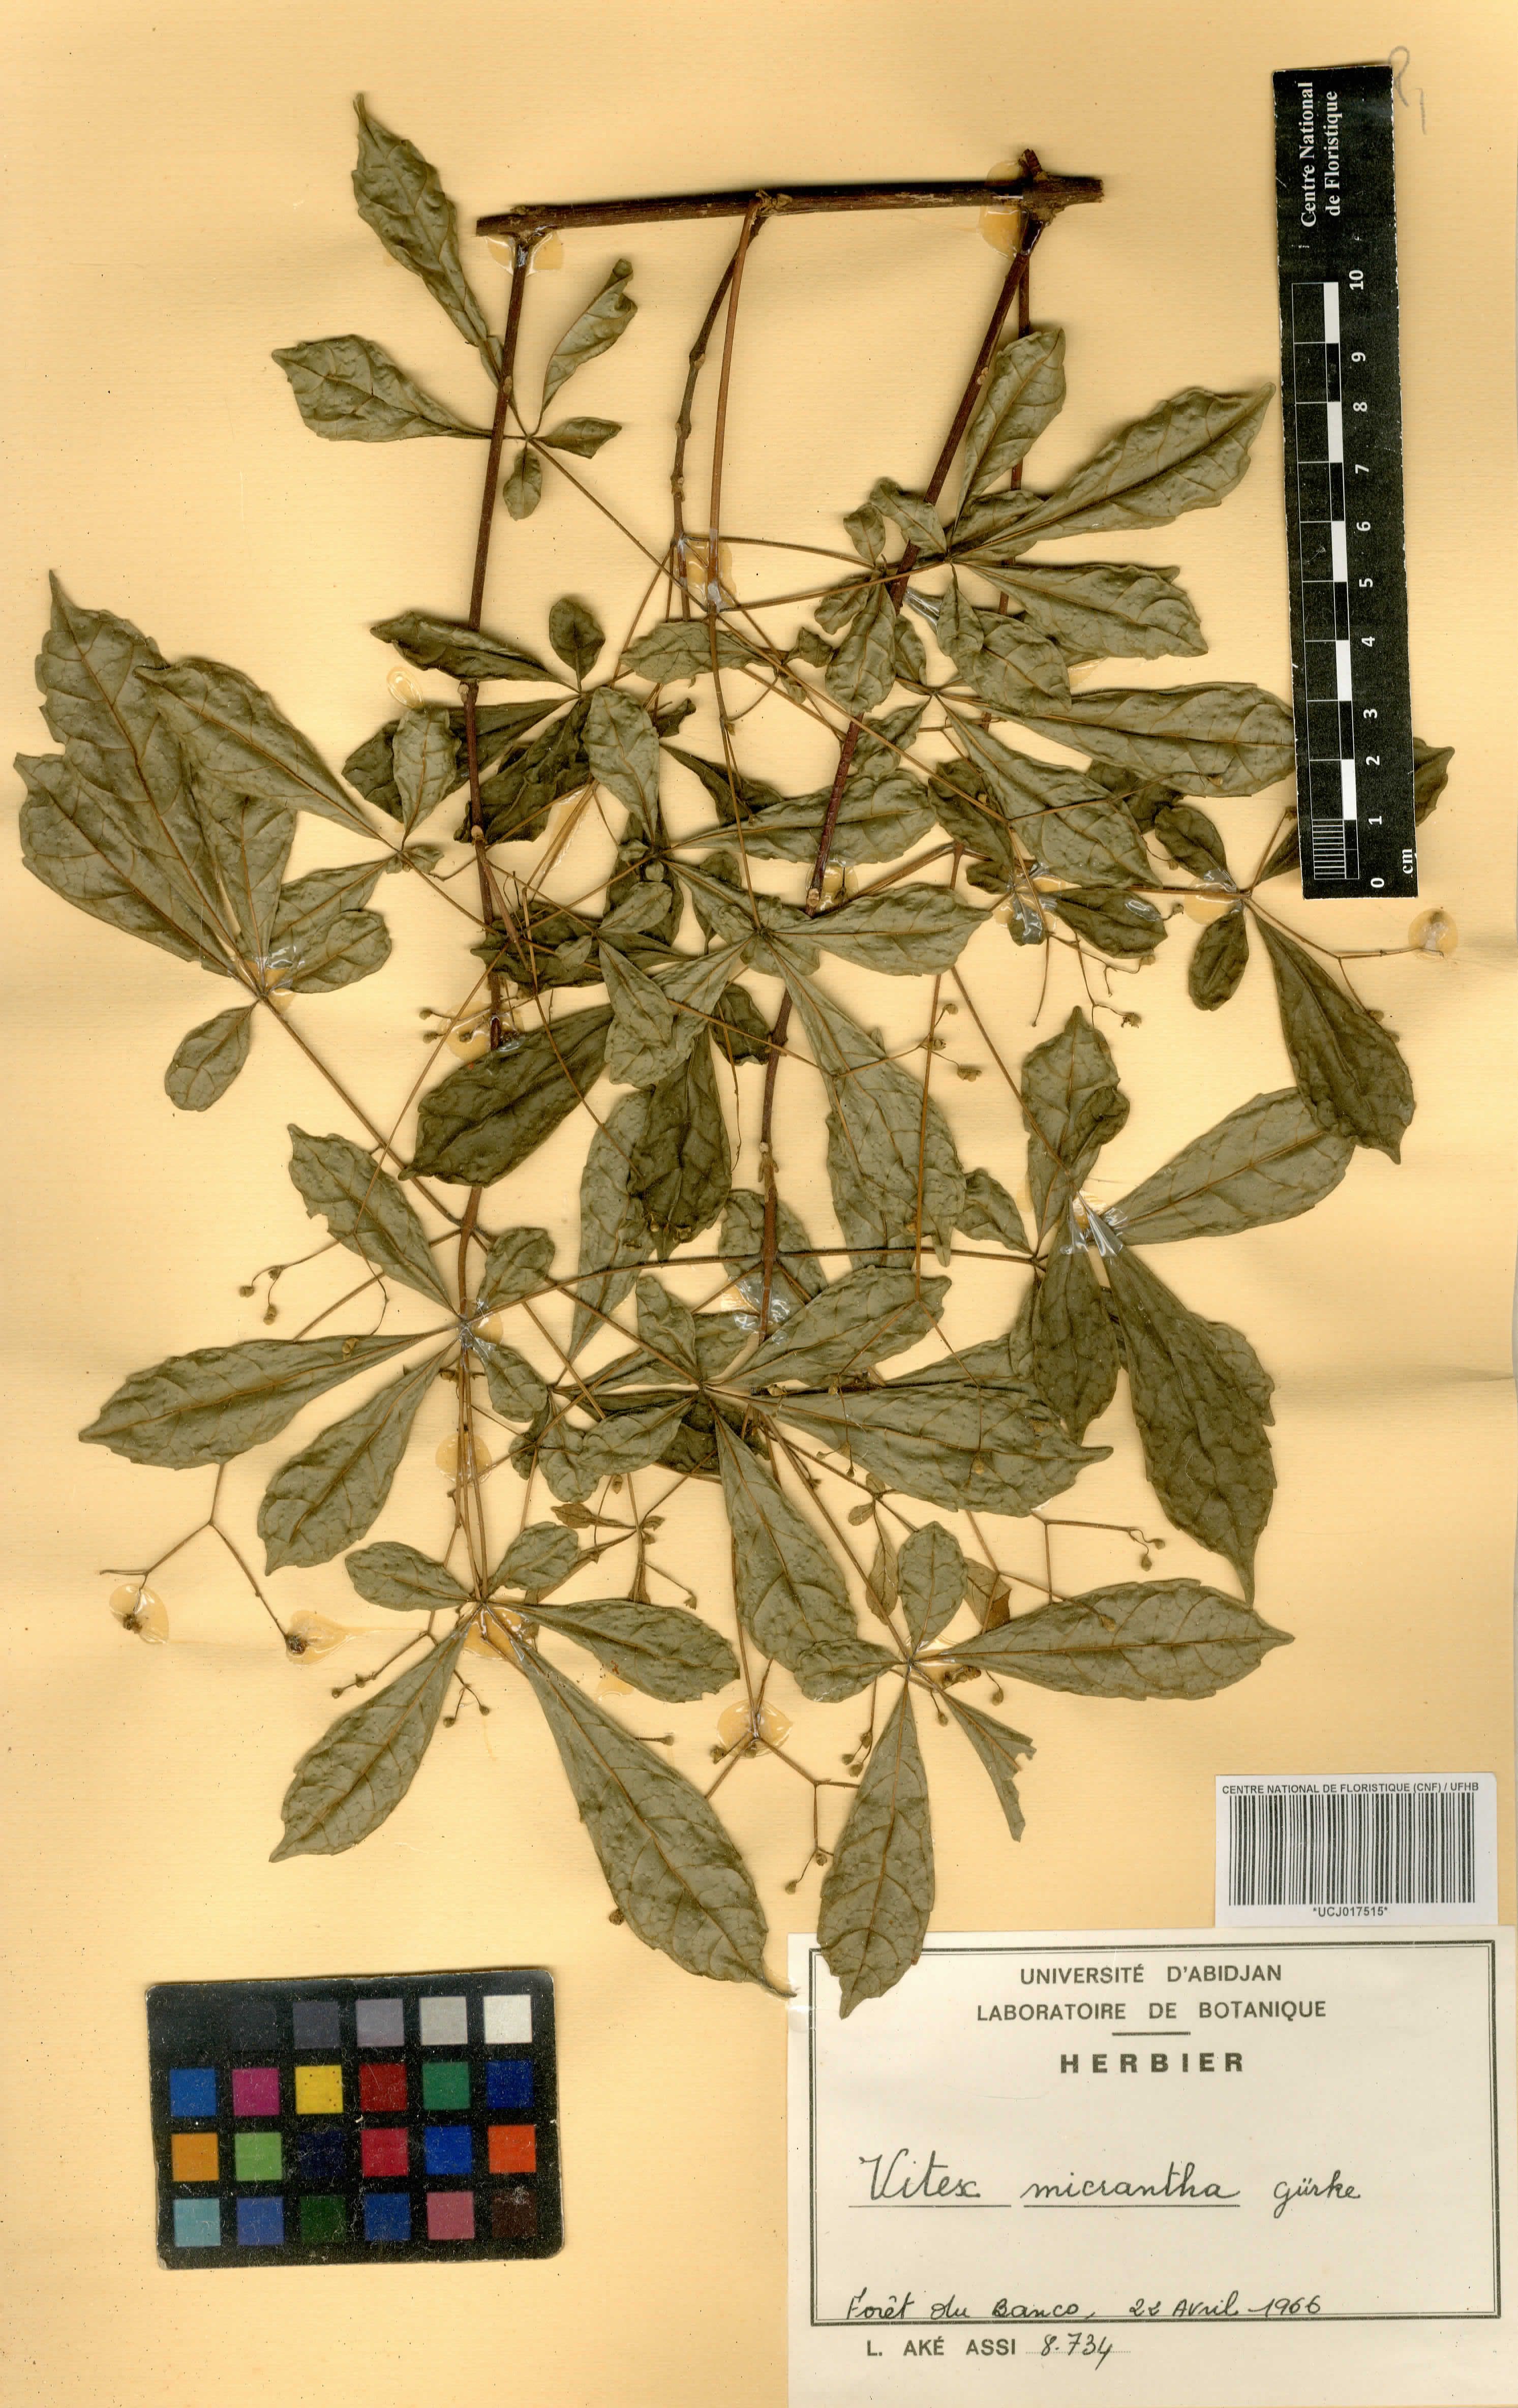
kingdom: Plantae
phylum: Tracheophyta
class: Magnoliopsida
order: Lamiales
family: Lamiaceae
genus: Vitex
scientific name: Vitex micrantha
